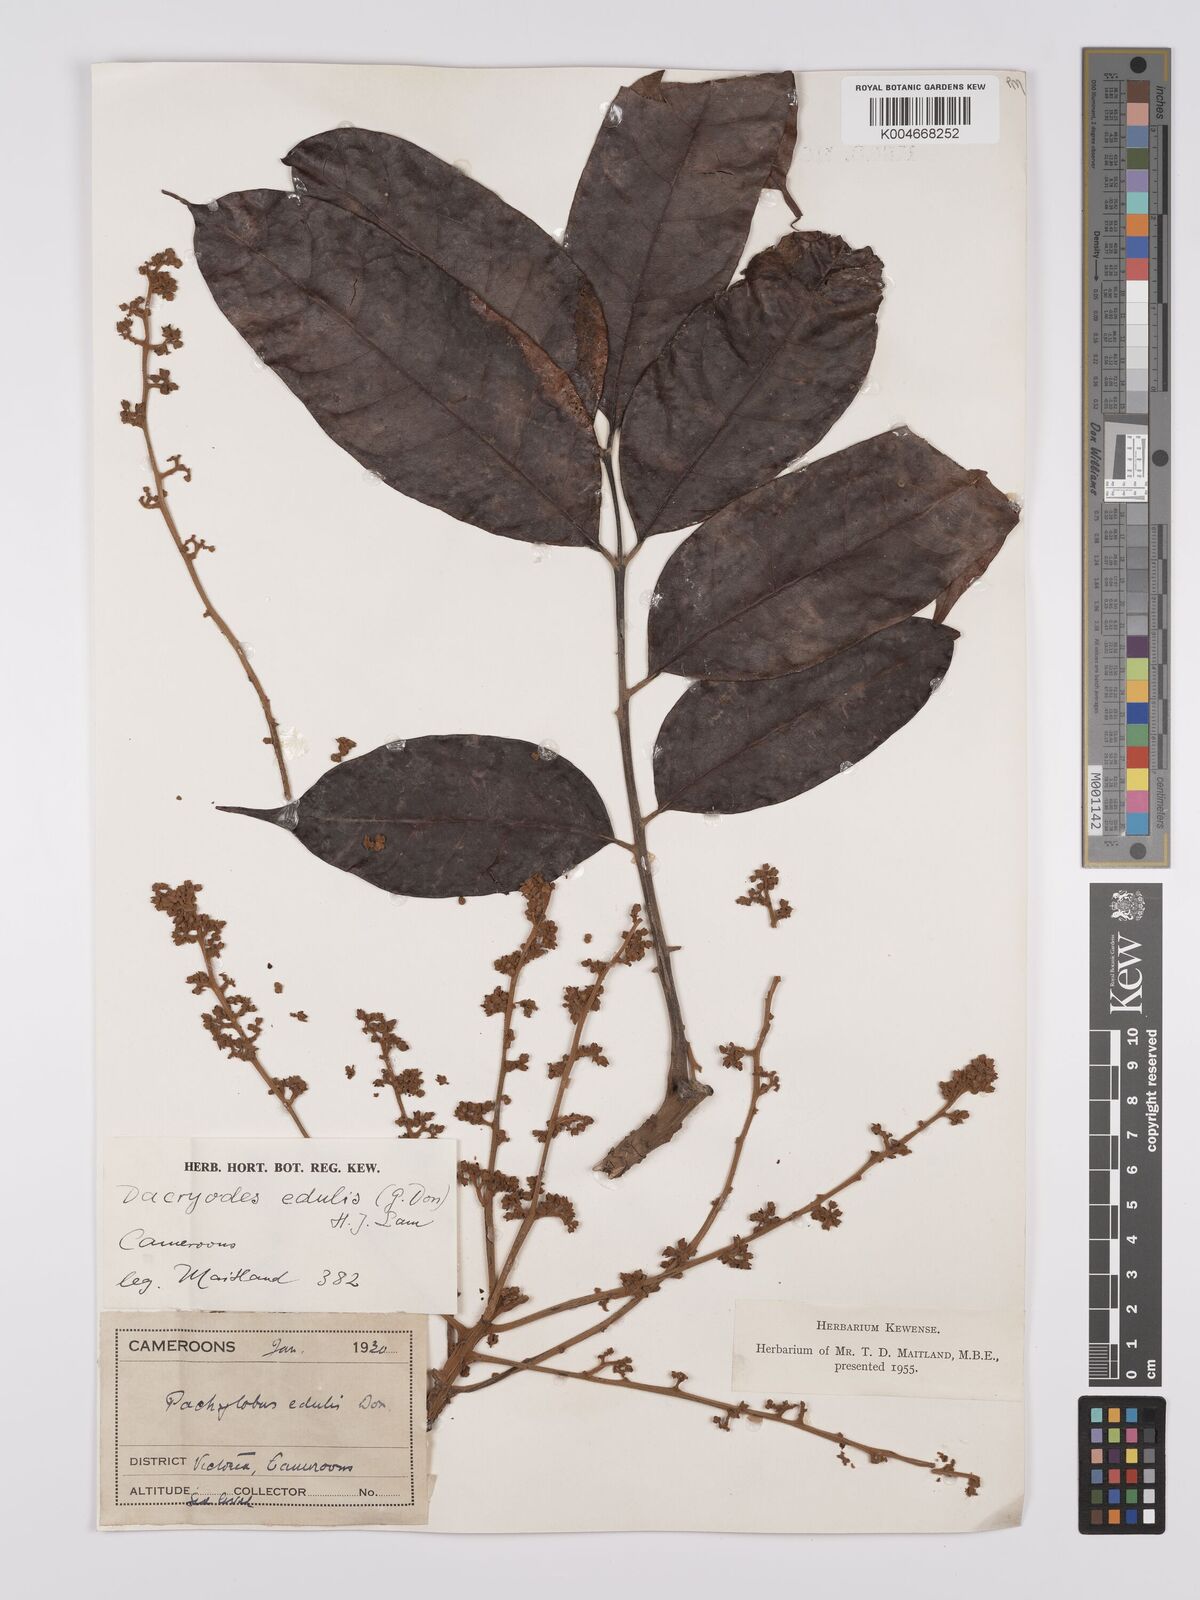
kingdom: Plantae
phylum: Tracheophyta
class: Magnoliopsida
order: Sapindales
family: Burseraceae
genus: Pachylobus
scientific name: Pachylobus edulis
